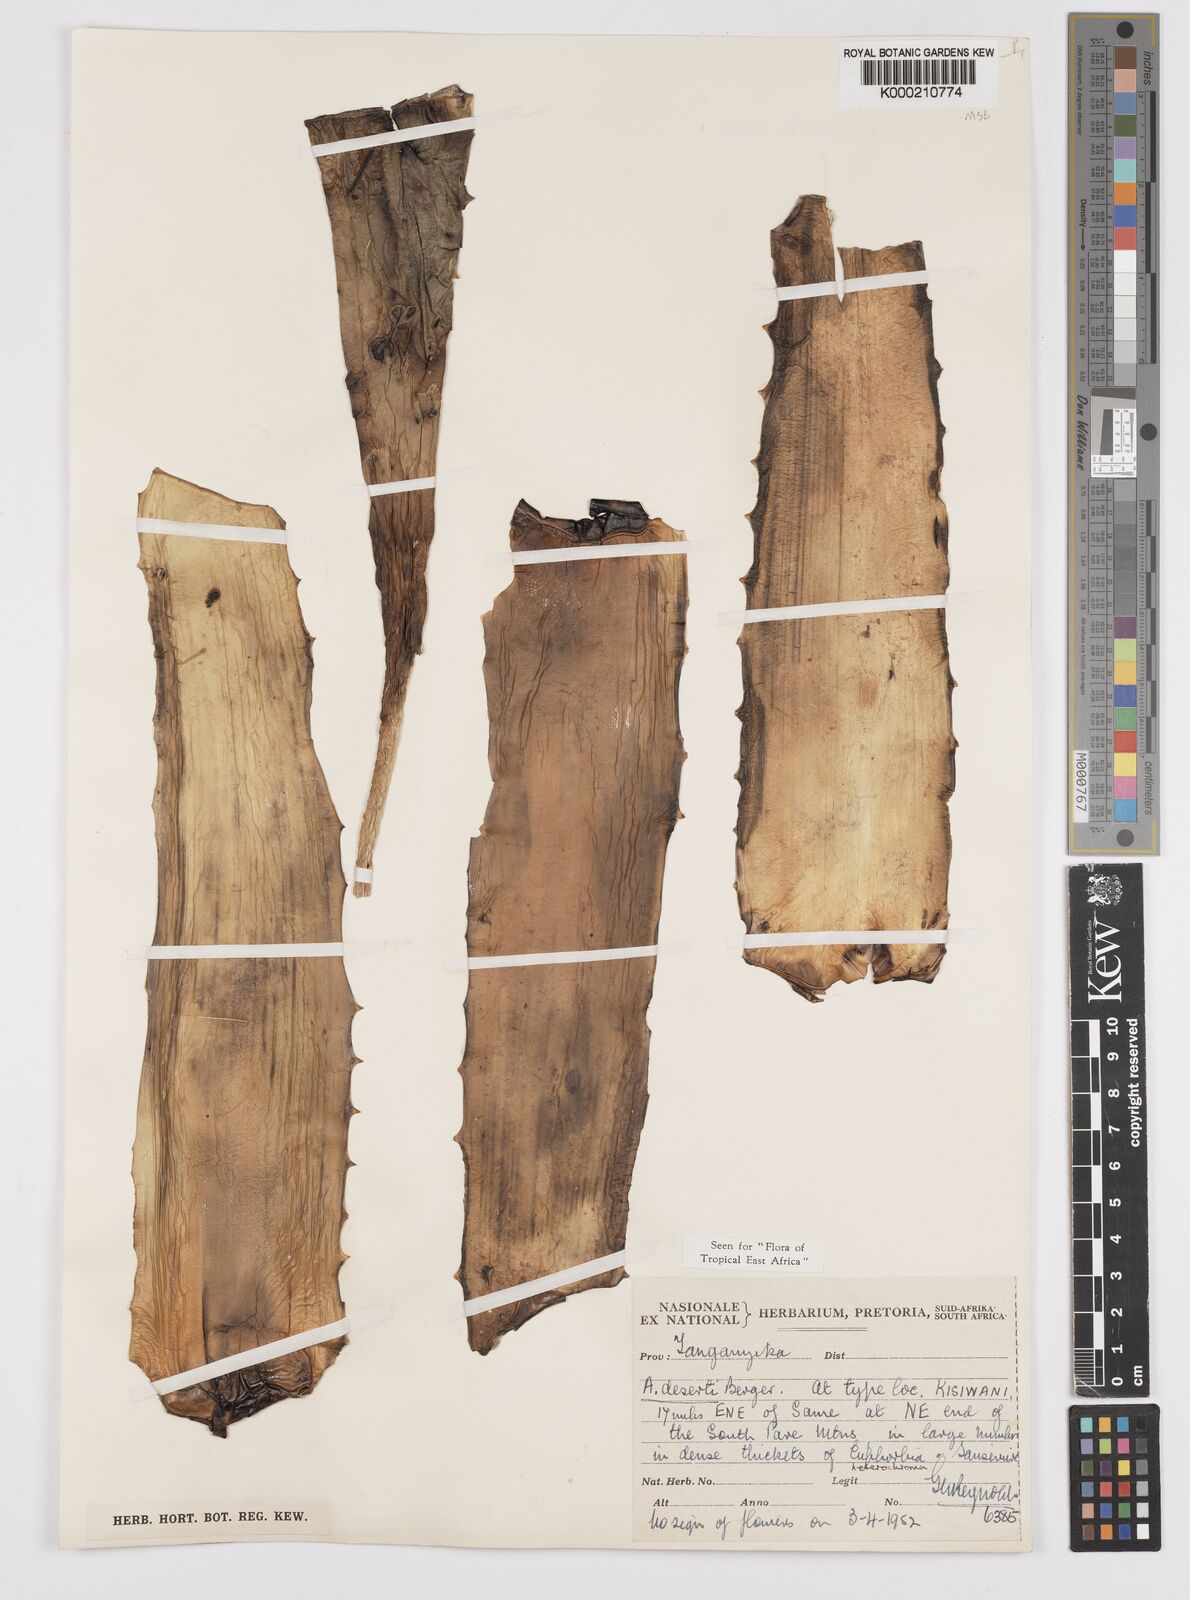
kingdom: Plantae
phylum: Tracheophyta
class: Liliopsida
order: Asparagales
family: Asphodelaceae
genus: Aloe
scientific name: Aloe deserti
